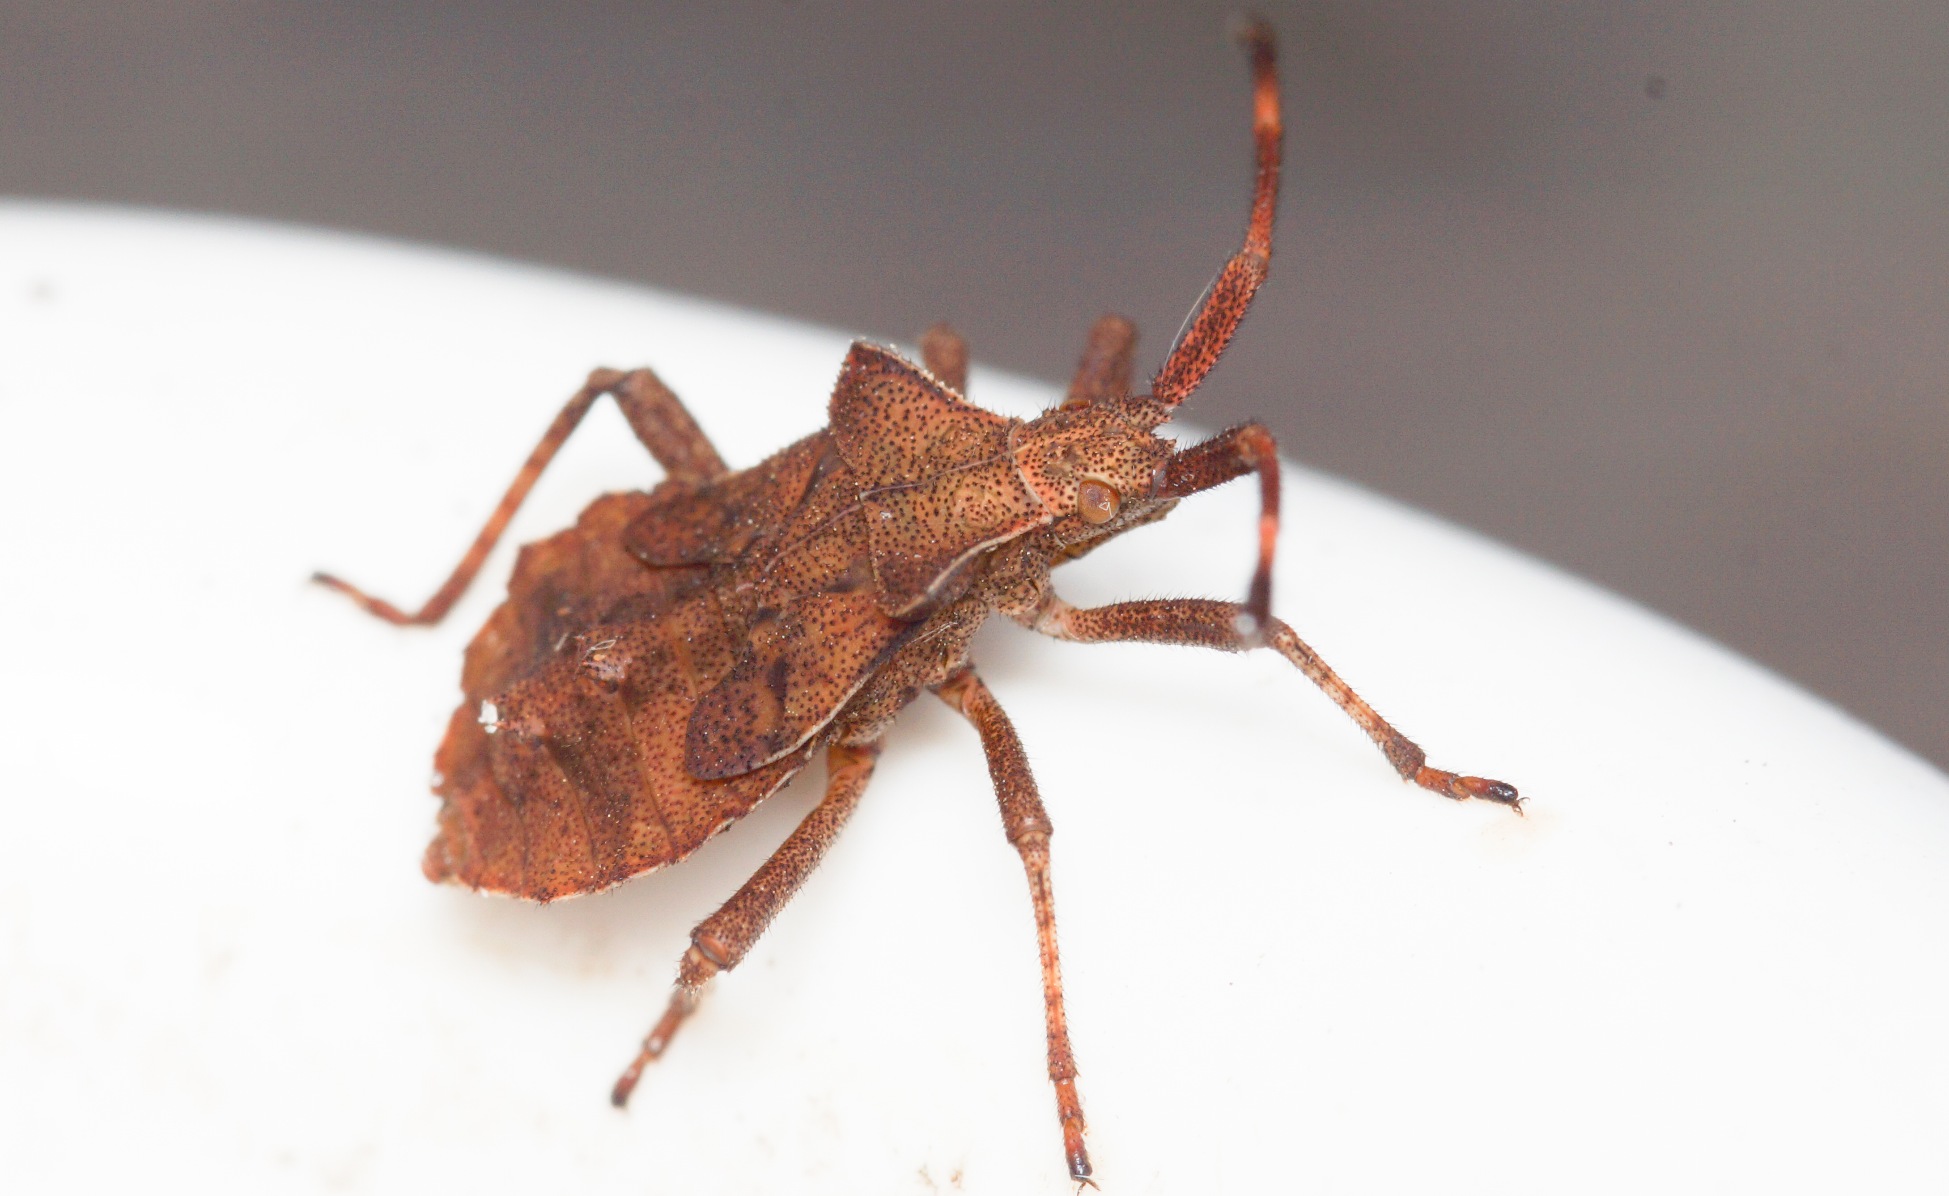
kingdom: Animalia
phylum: Arthropoda
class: Insecta
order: Hemiptera
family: Coreidae
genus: Coreus
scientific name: Coreus marginatus
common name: Skræppetæge
